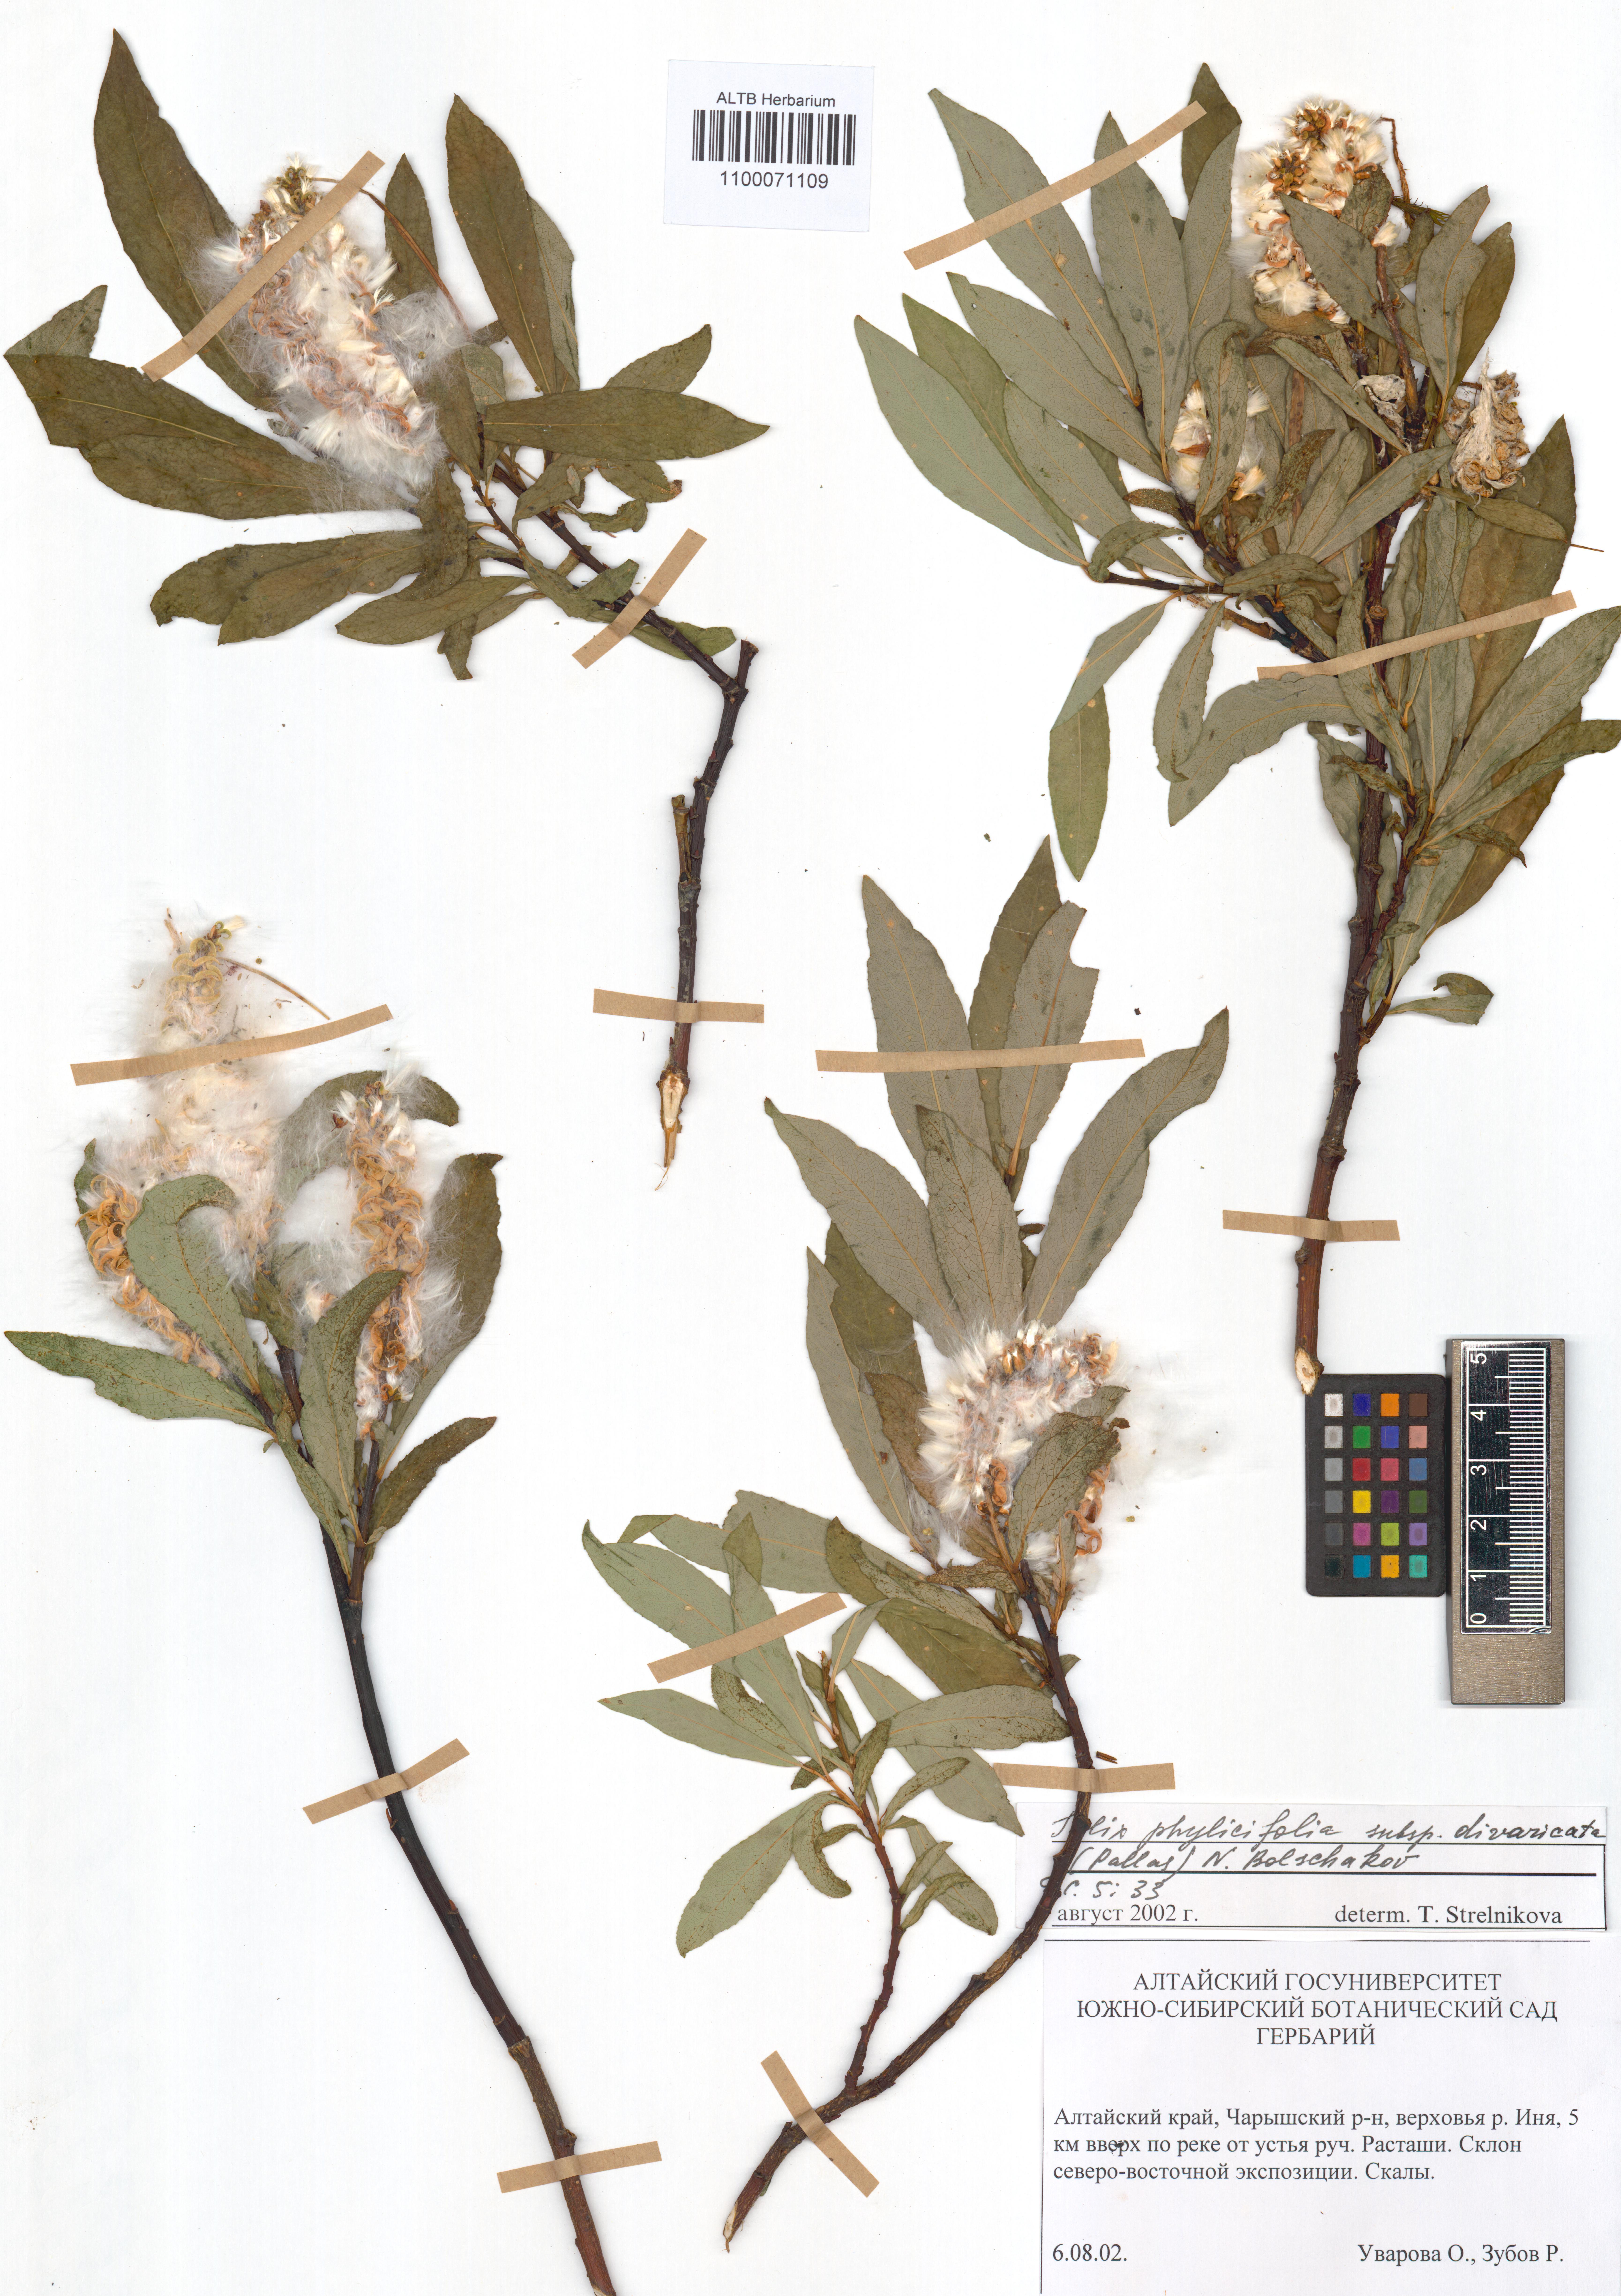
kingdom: Plantae
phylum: Tracheophyta
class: Magnoliopsida
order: Malpighiales
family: Salicaceae
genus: Salix
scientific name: Salix phylicifolia
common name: Tea-leaved willow
